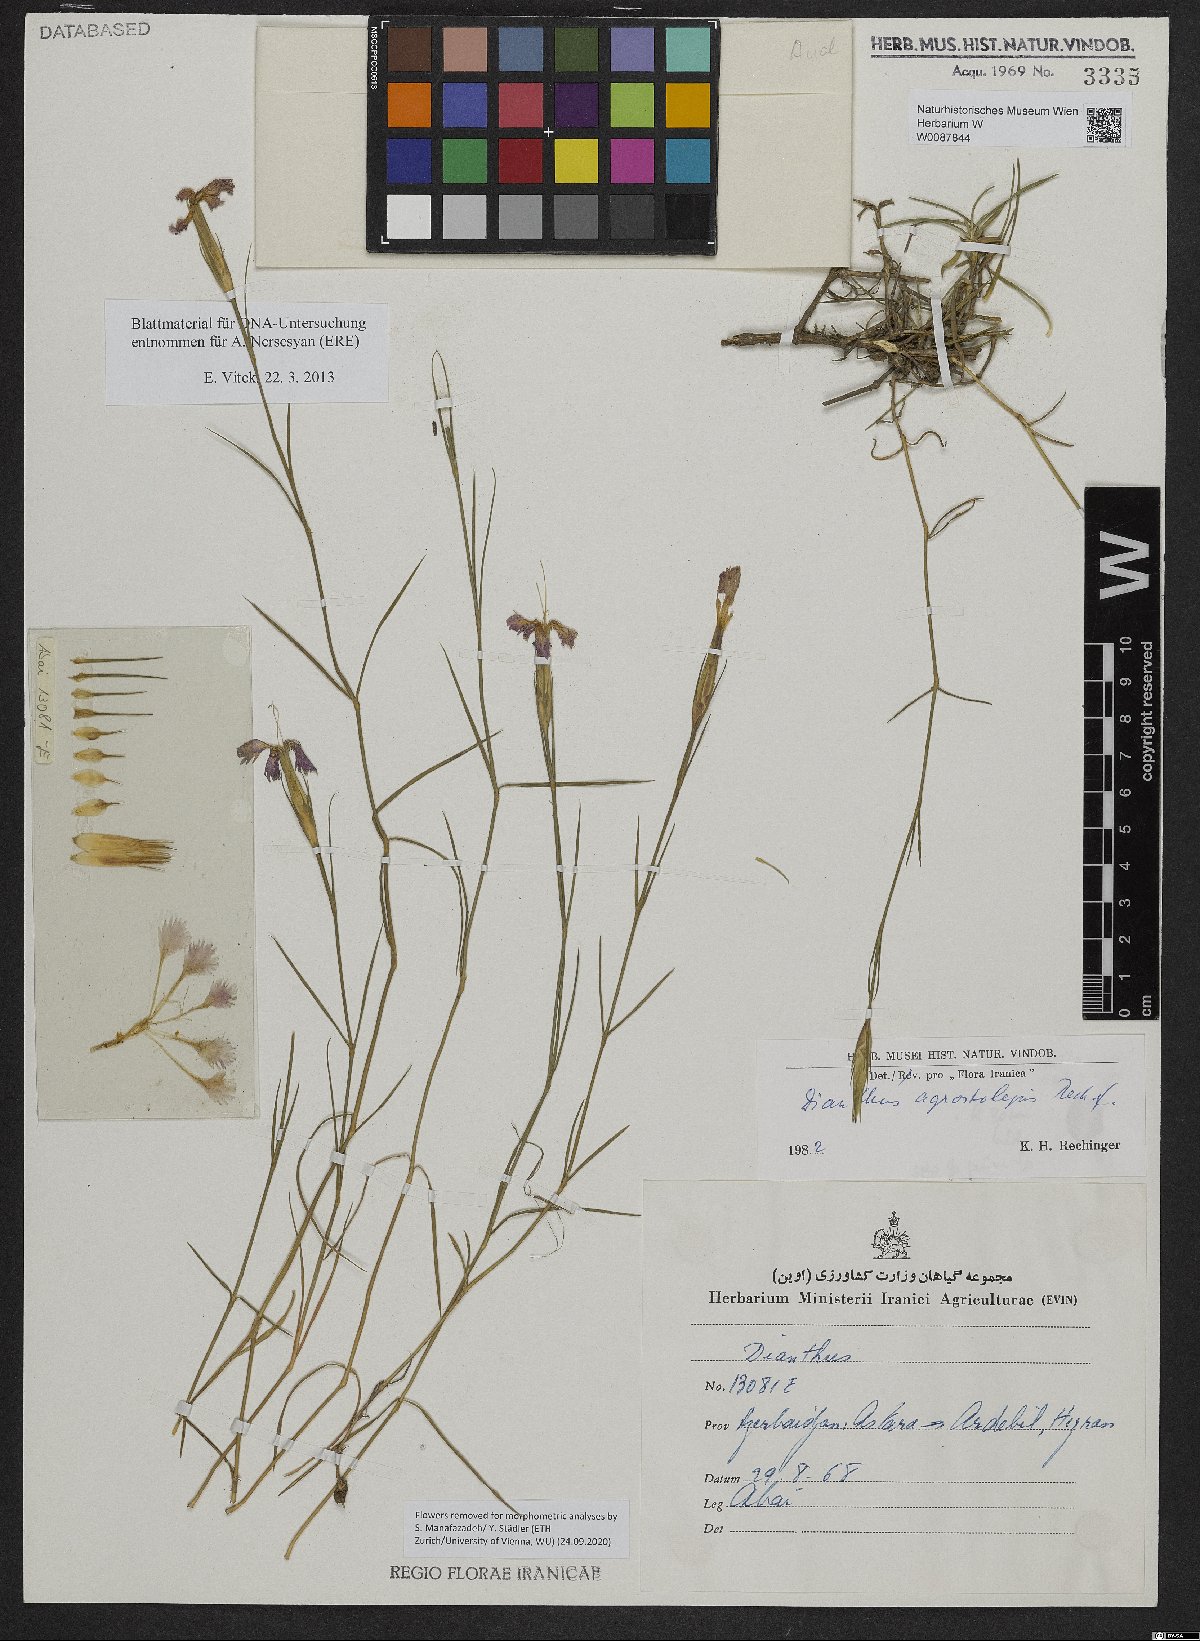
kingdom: Plantae
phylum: Tracheophyta
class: Magnoliopsida
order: Caryophyllales
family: Caryophyllaceae
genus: Dianthus
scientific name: Dianthus agrostolepis
